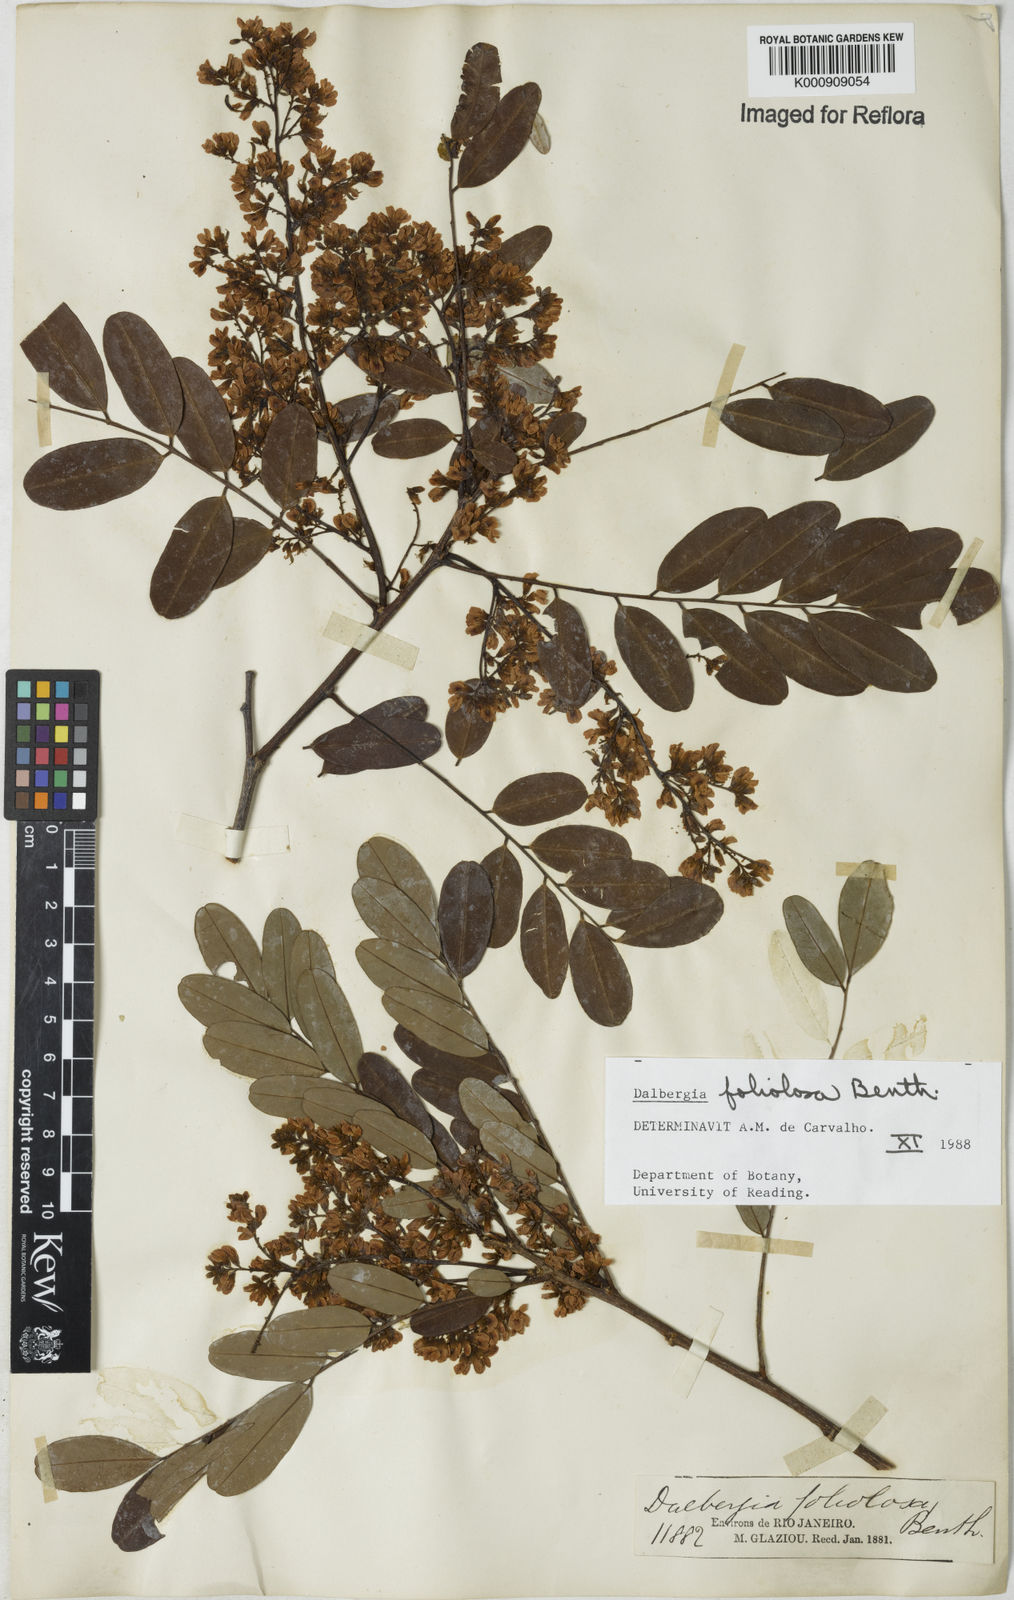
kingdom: Plantae
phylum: Tracheophyta
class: Magnoliopsida
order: Fabales
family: Fabaceae
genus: Dalbergia
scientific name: Dalbergia foliolosa
